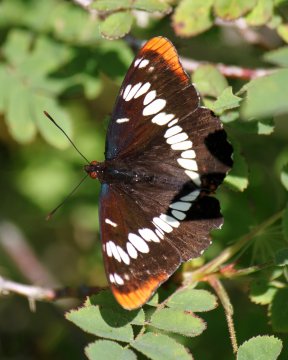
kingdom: Animalia
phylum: Arthropoda
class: Insecta
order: Lepidoptera
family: Nymphalidae
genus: Limenitis
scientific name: Limenitis lorquini
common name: Lorquin's Admiral
